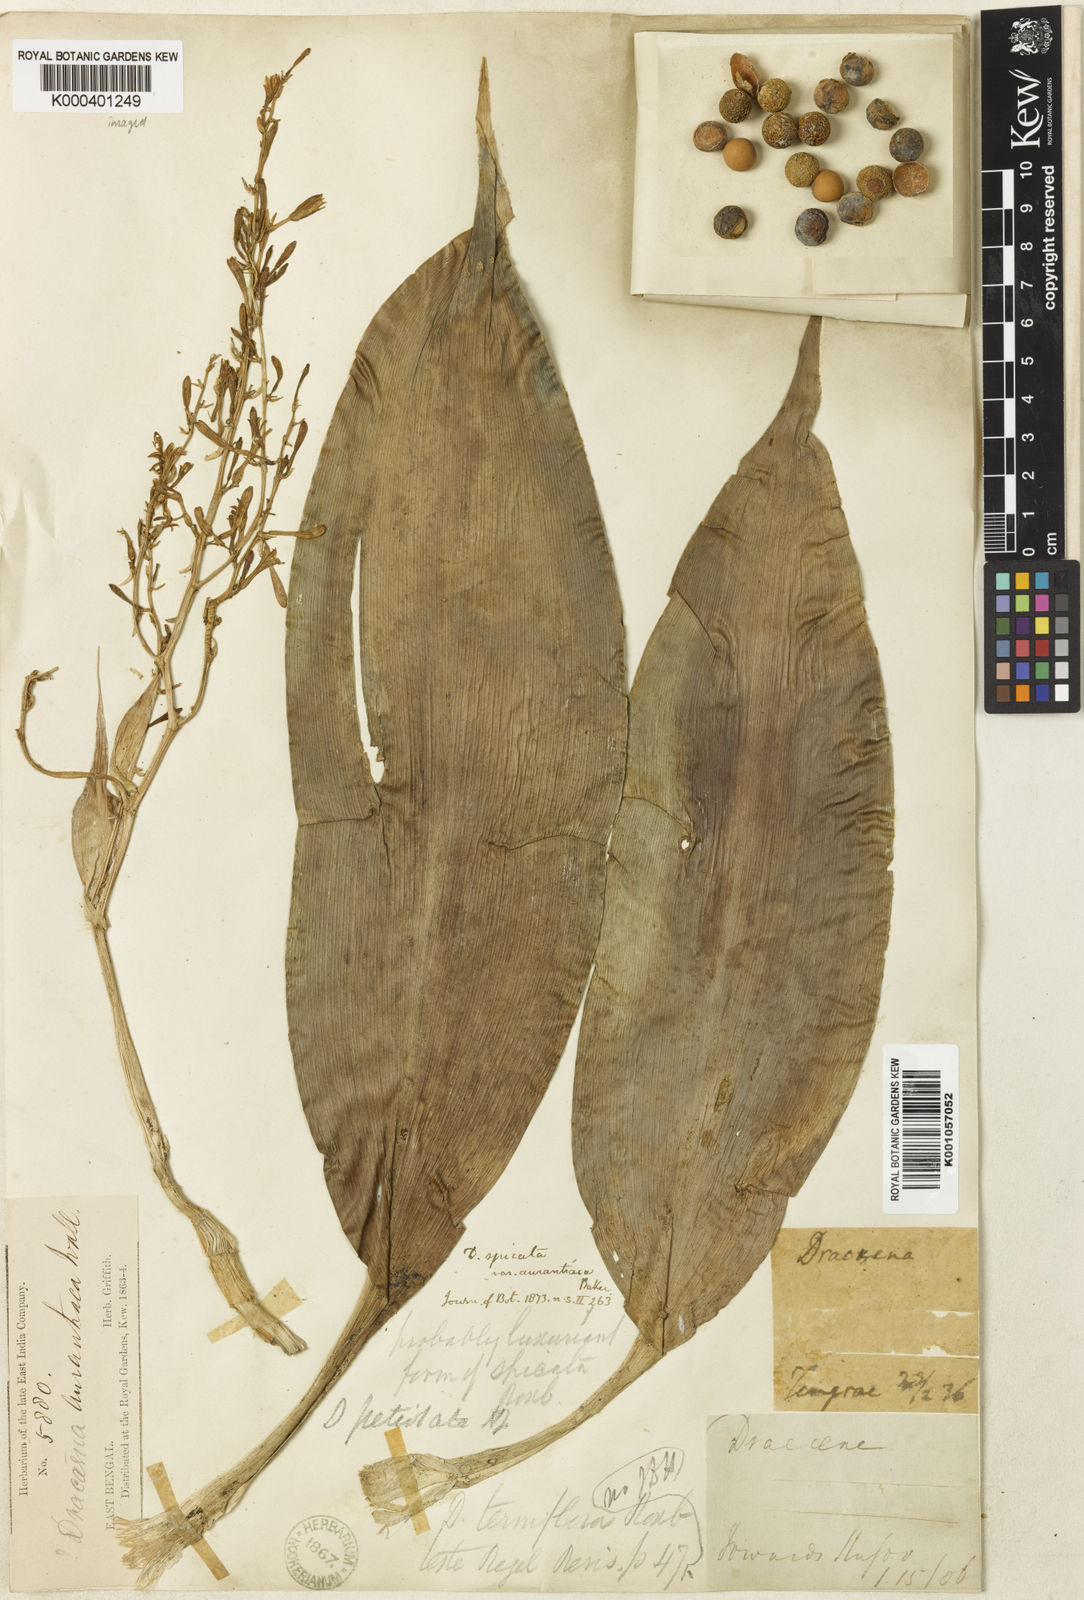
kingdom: Plantae
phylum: Tracheophyta
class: Liliopsida
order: Asparagales
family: Asparagaceae
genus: Dracaena
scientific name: Dracaena petiolata
